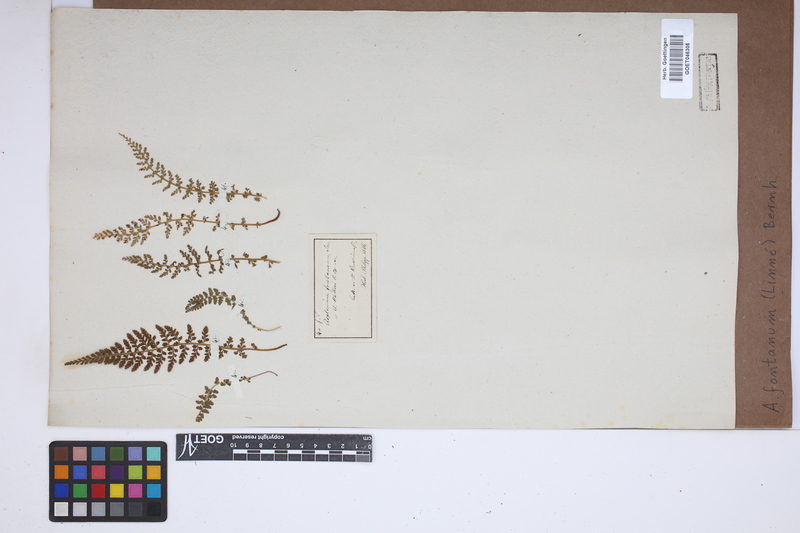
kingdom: Plantae
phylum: Tracheophyta
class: Polypodiopsida
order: Polypodiales
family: Aspleniaceae
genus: Asplenium
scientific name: Asplenium fontanum
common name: Fountain spleenwort
